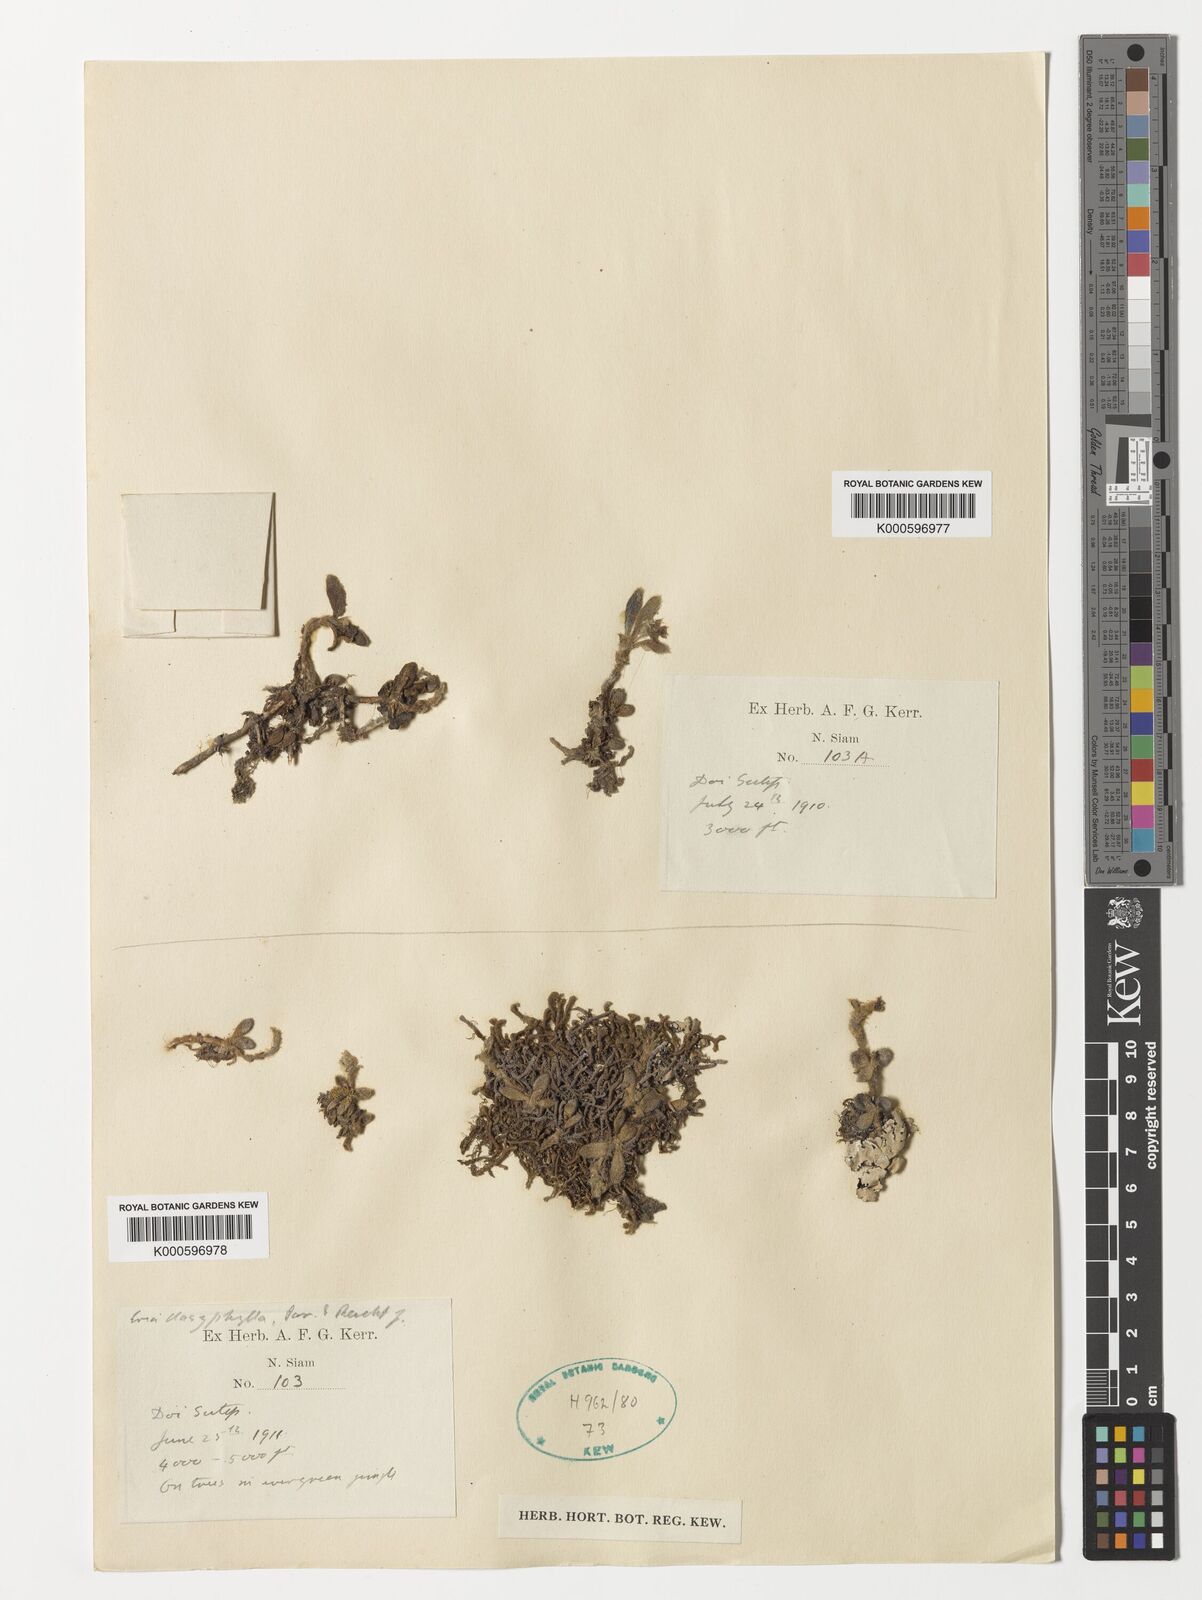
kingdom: Plantae
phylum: Tracheophyta
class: Liliopsida
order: Asparagales
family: Orchidaceae
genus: Trichotosia
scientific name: Trichotosia dasyphylla
